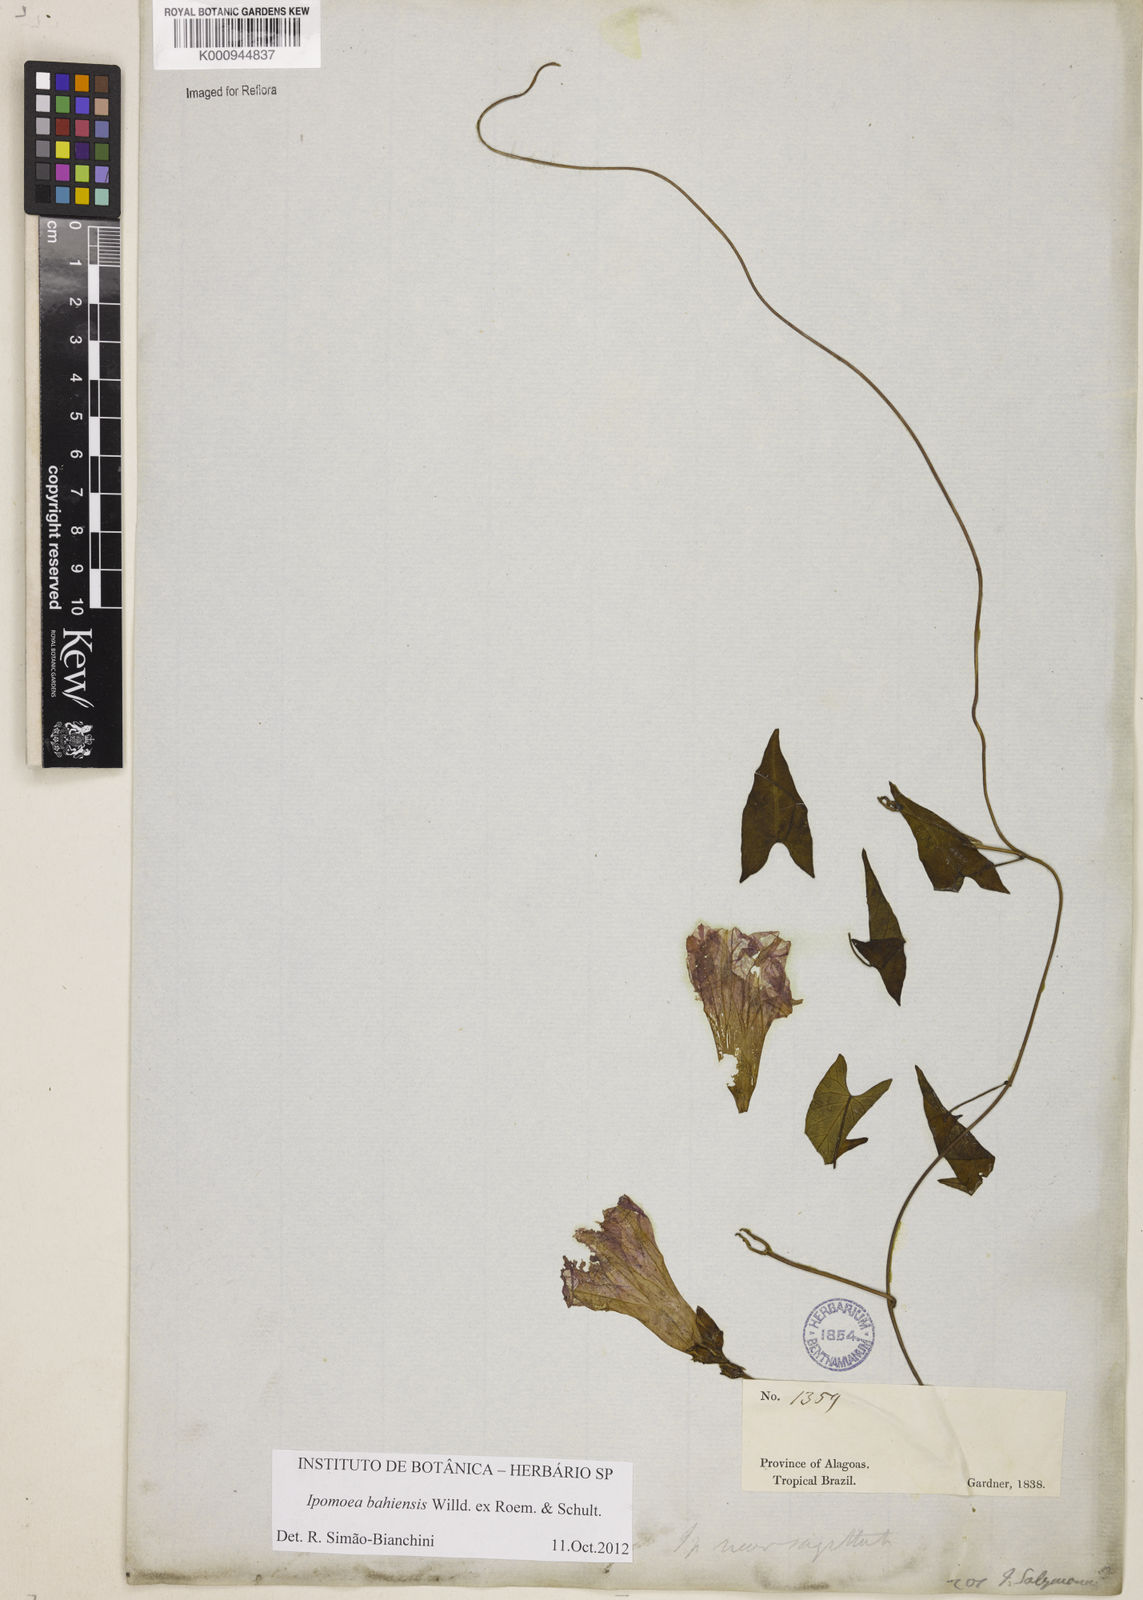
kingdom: Plantae
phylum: Tracheophyta
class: Magnoliopsida
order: Solanales
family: Convolvulaceae
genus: Ipomoea
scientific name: Ipomoea
